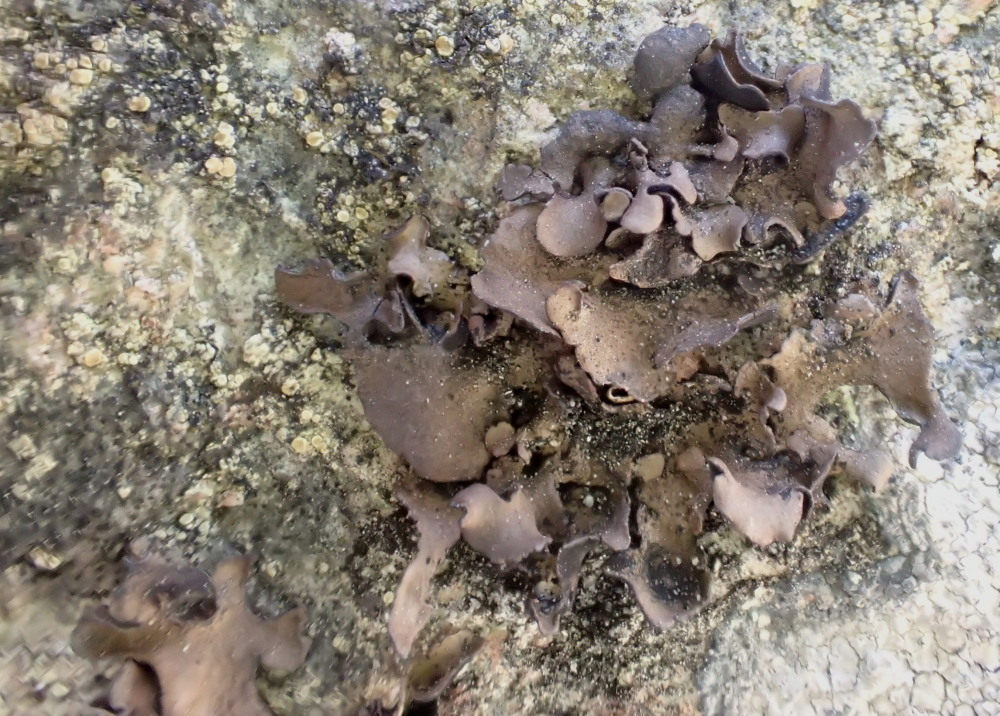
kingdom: Fungi
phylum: Ascomycota
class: Lecanoromycetes
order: Umbilicariales
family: Umbilicariaceae
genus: Umbilicaria
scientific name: Umbilicaria polyphylla
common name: glat navlelav
